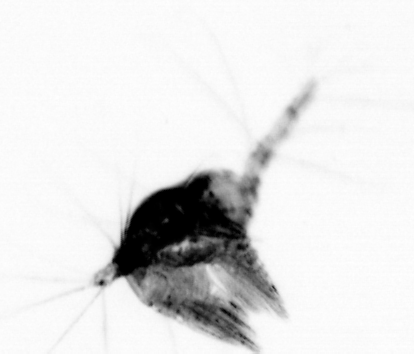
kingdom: Animalia
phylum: Arthropoda
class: Copepoda
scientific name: Copepoda
